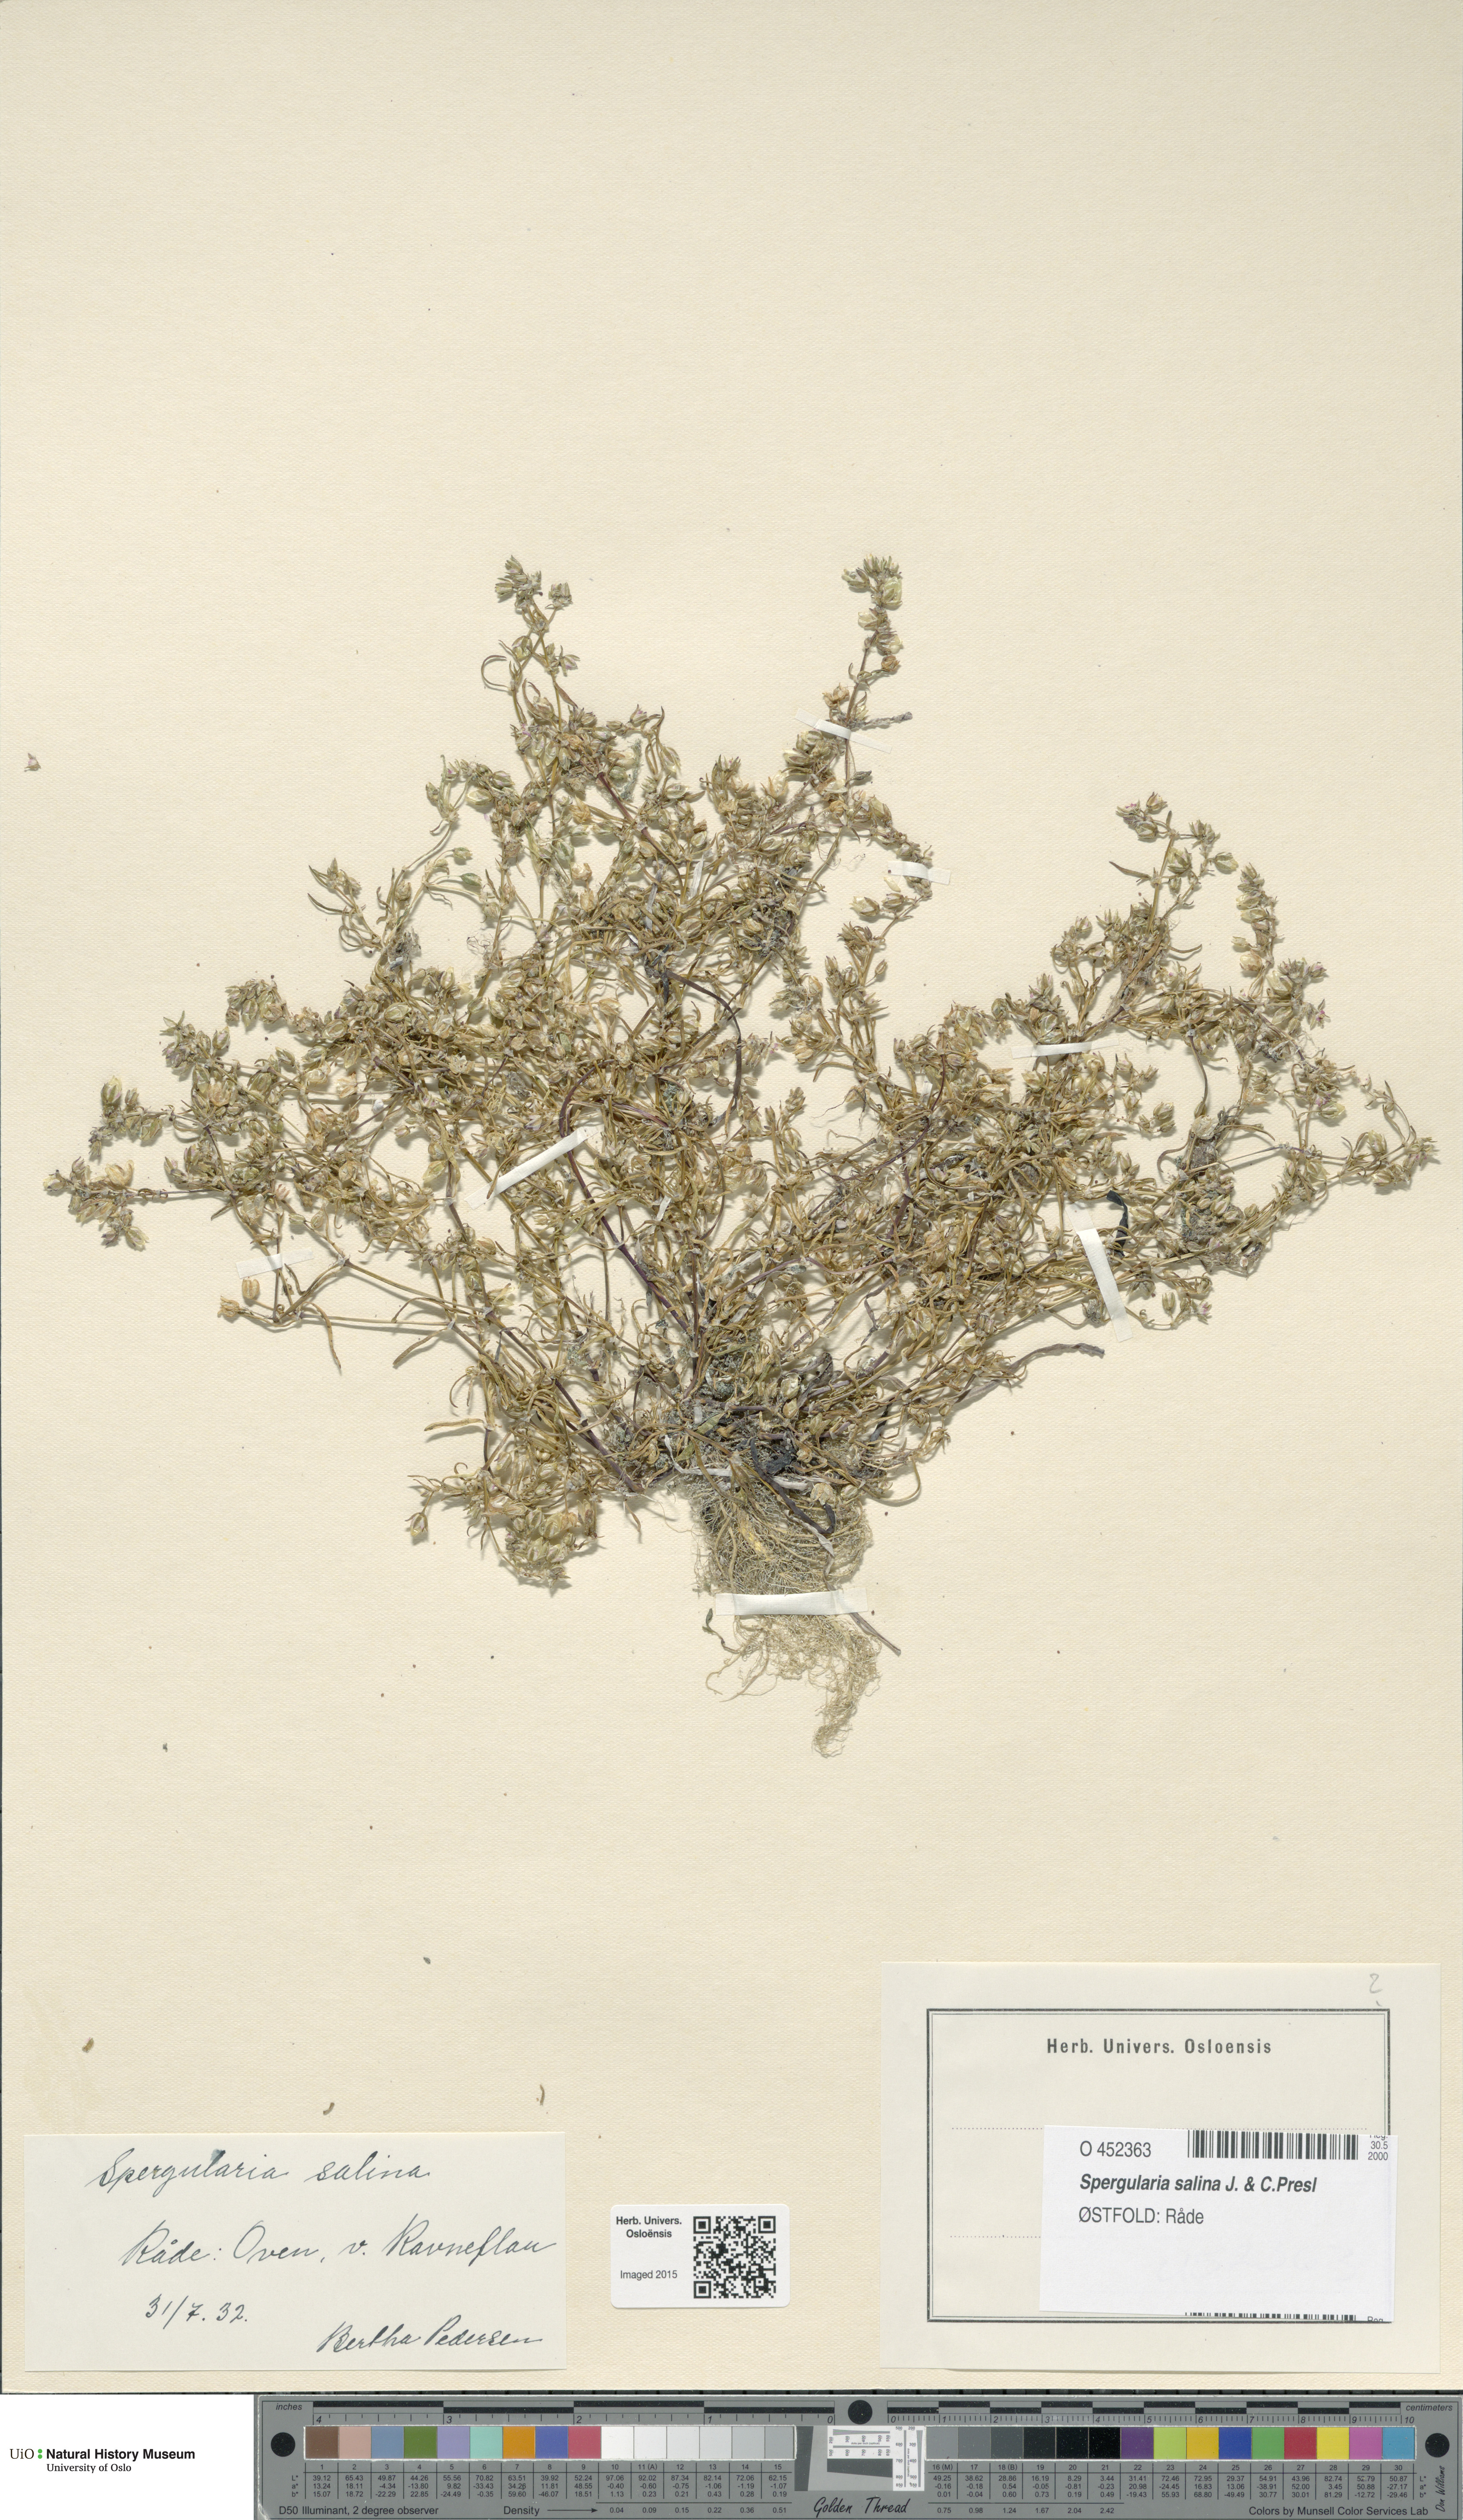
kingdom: Plantae
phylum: Tracheophyta
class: Magnoliopsida
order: Caryophyllales
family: Caryophyllaceae
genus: Spergularia
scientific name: Spergularia marina
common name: Lesser sea-spurrey
